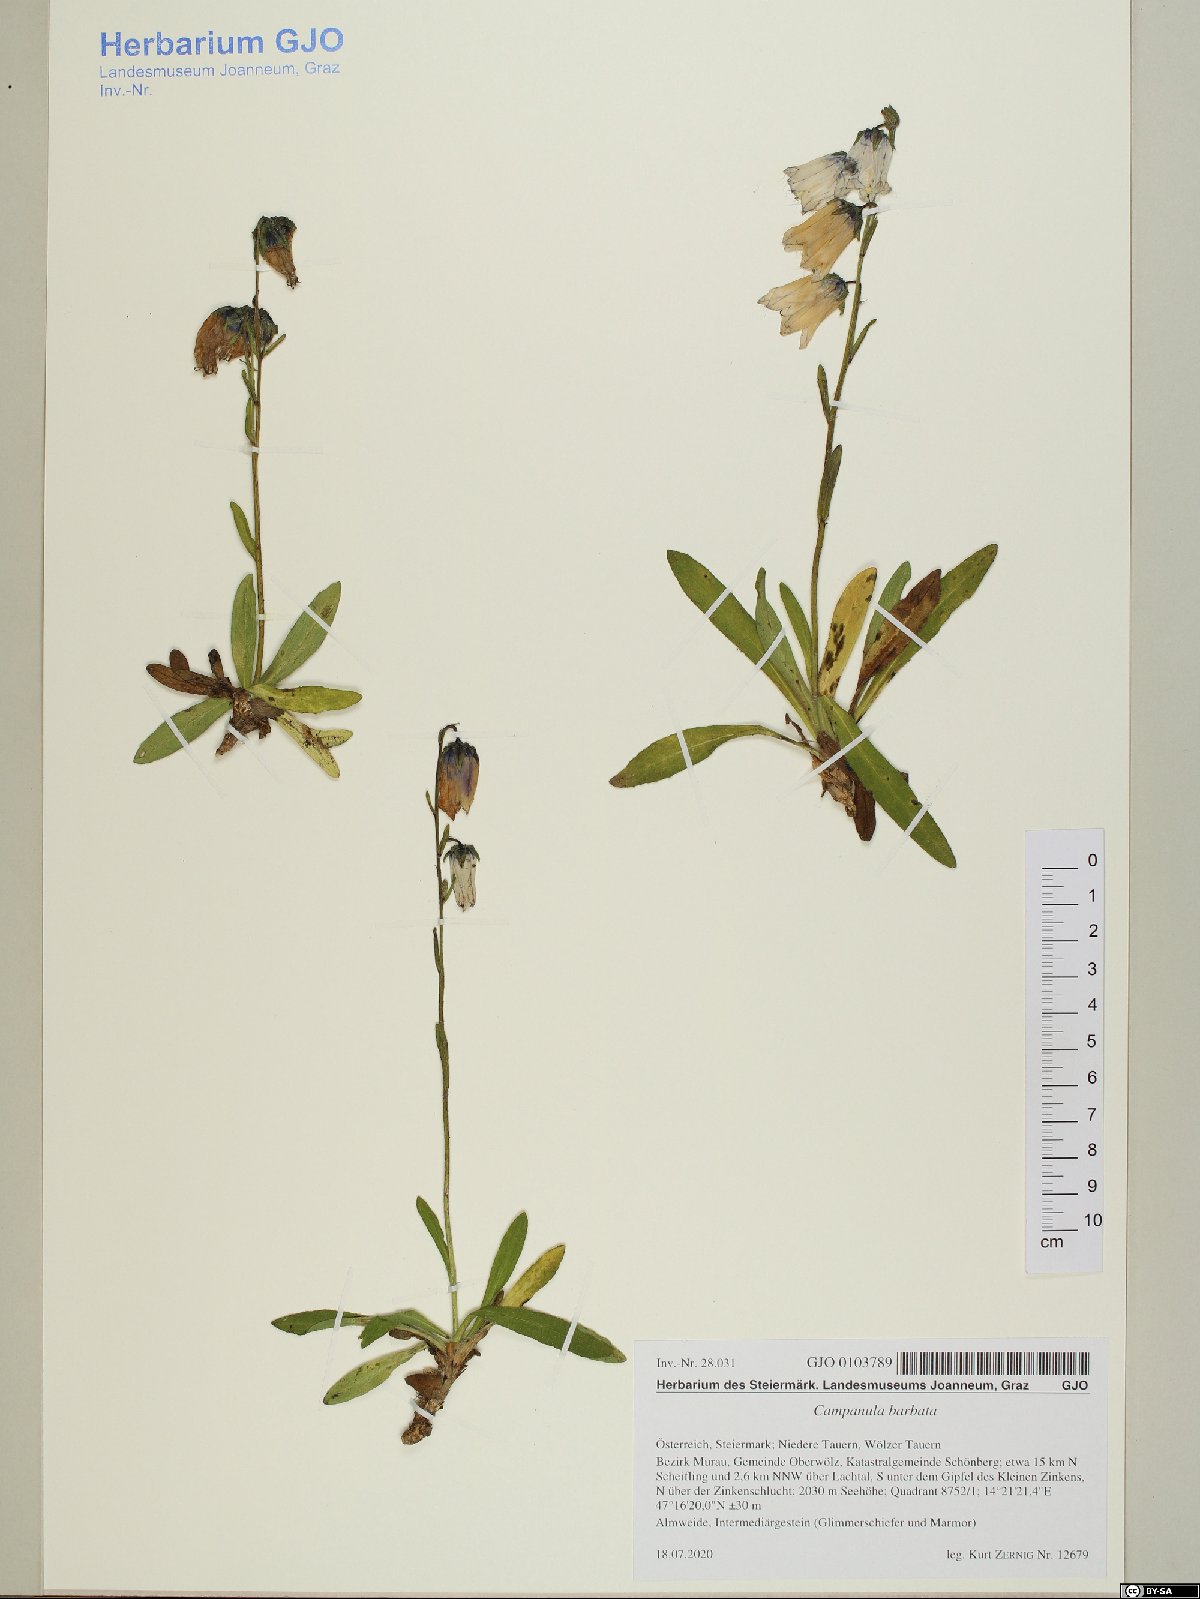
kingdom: Plantae
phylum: Tracheophyta
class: Magnoliopsida
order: Asterales
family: Campanulaceae
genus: Campanula
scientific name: Campanula barbata
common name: Bearded bellflower
